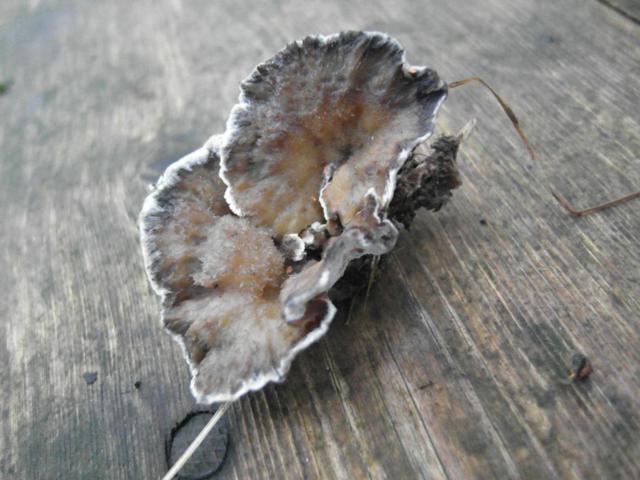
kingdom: Fungi
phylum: Basidiomycota
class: Agaricomycetes
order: Polyporales
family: Phanerochaetaceae
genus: Bjerkandera
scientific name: Bjerkandera adusta
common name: sveden sodporesvamp
